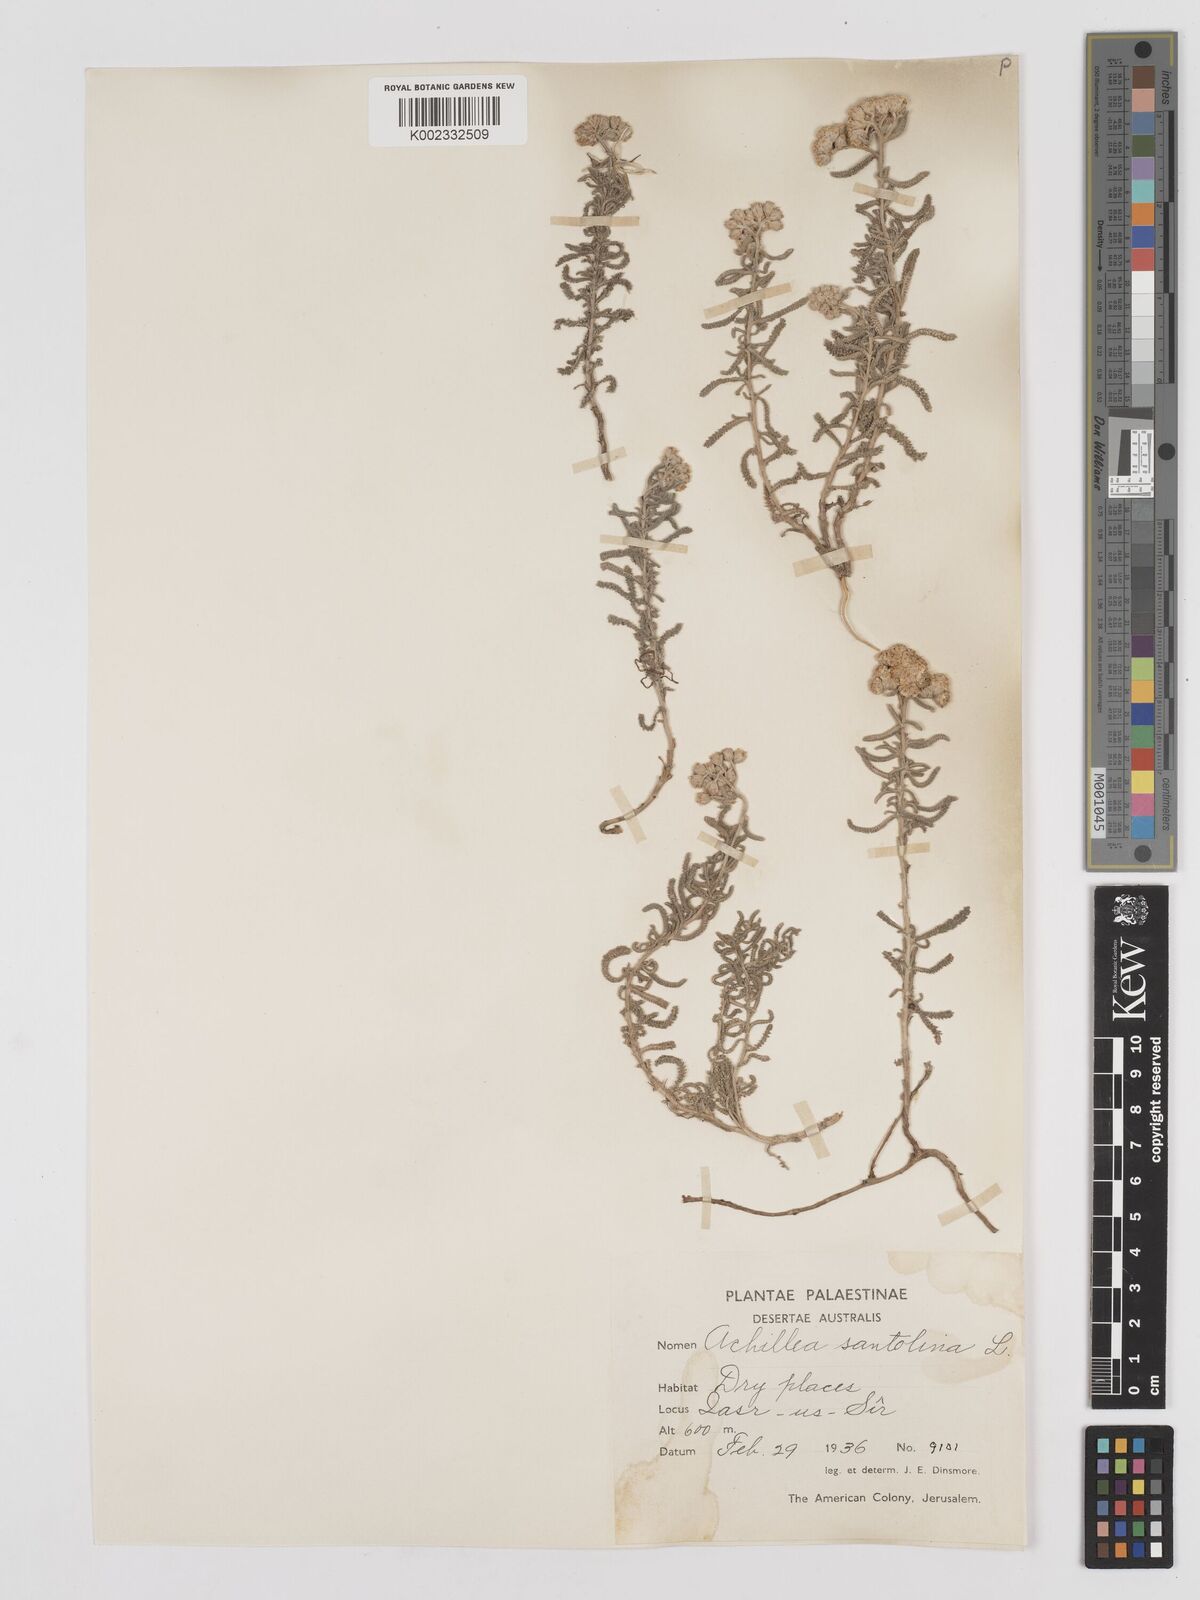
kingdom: Plantae
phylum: Tracheophyta
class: Magnoliopsida
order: Asterales
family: Asteraceae
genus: Achillea
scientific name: Achillea tenuifolia
